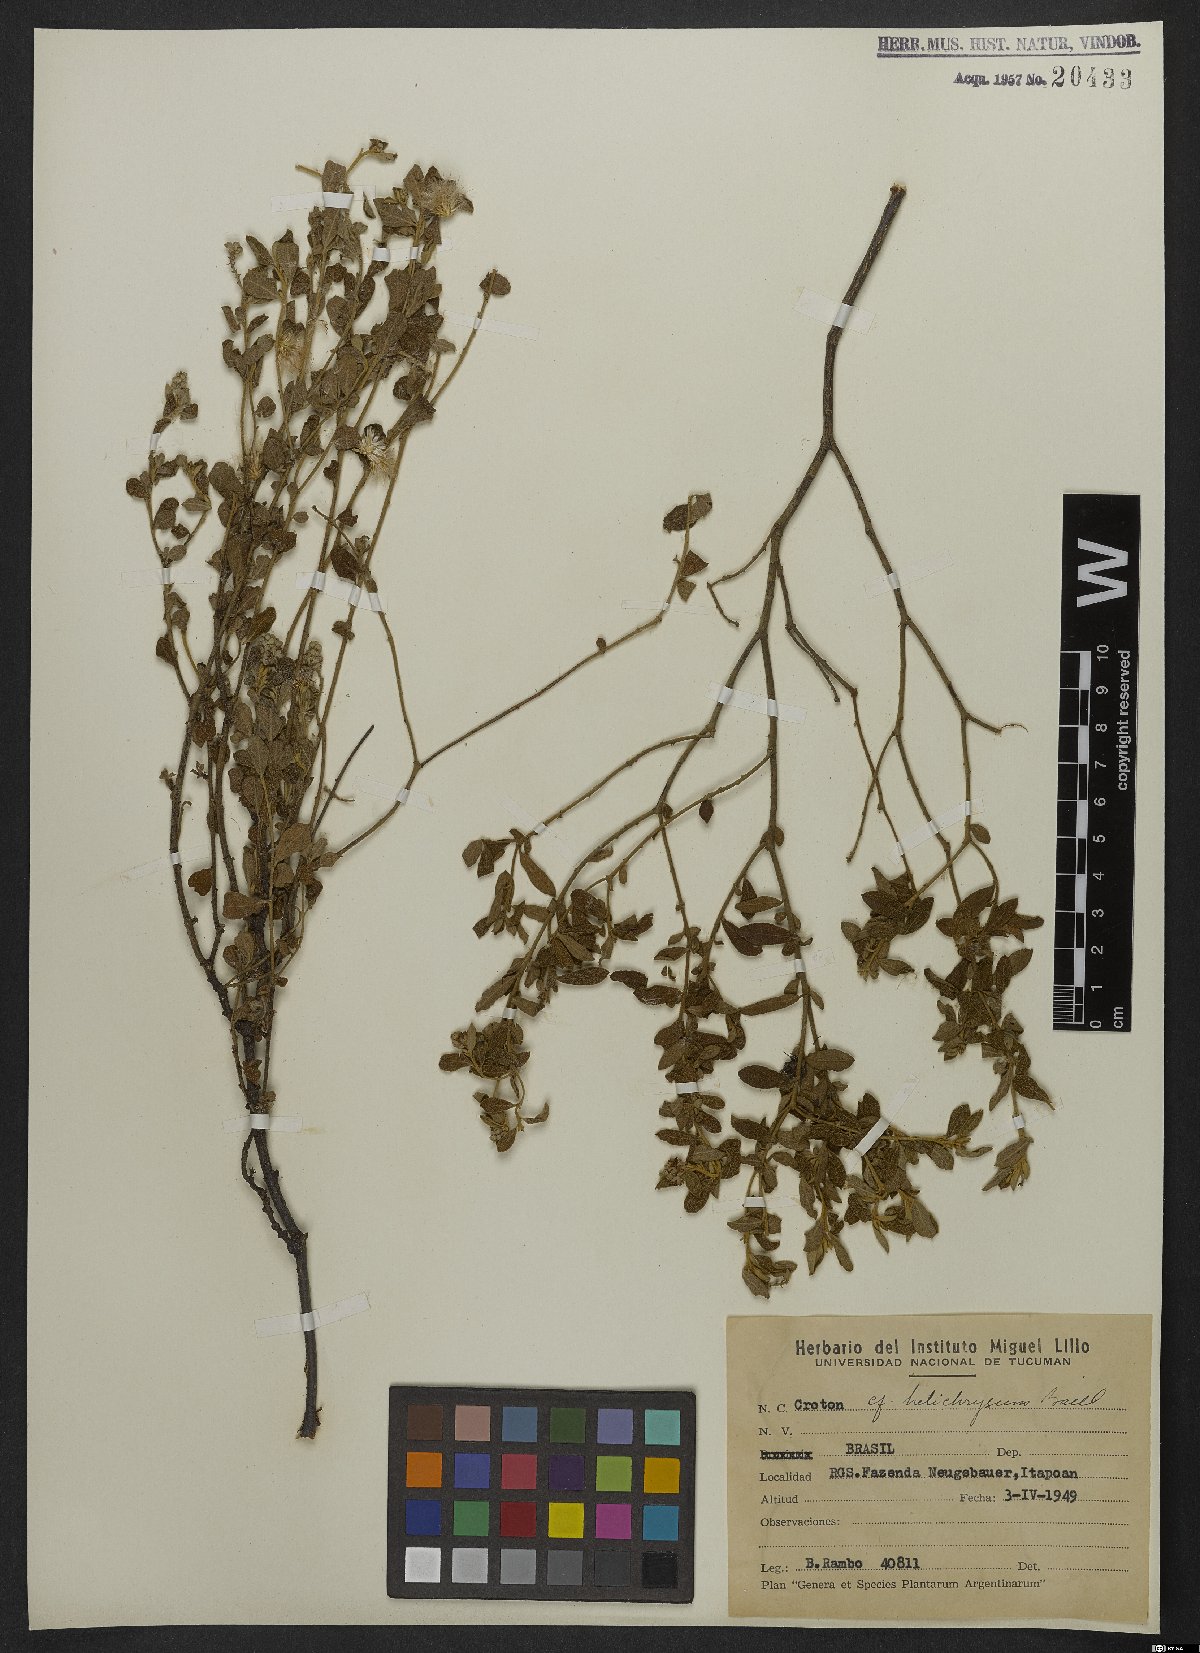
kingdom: Plantae
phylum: Tracheophyta
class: Magnoliopsida
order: Malpighiales
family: Euphorbiaceae
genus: Croton
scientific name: Croton helichrysum
